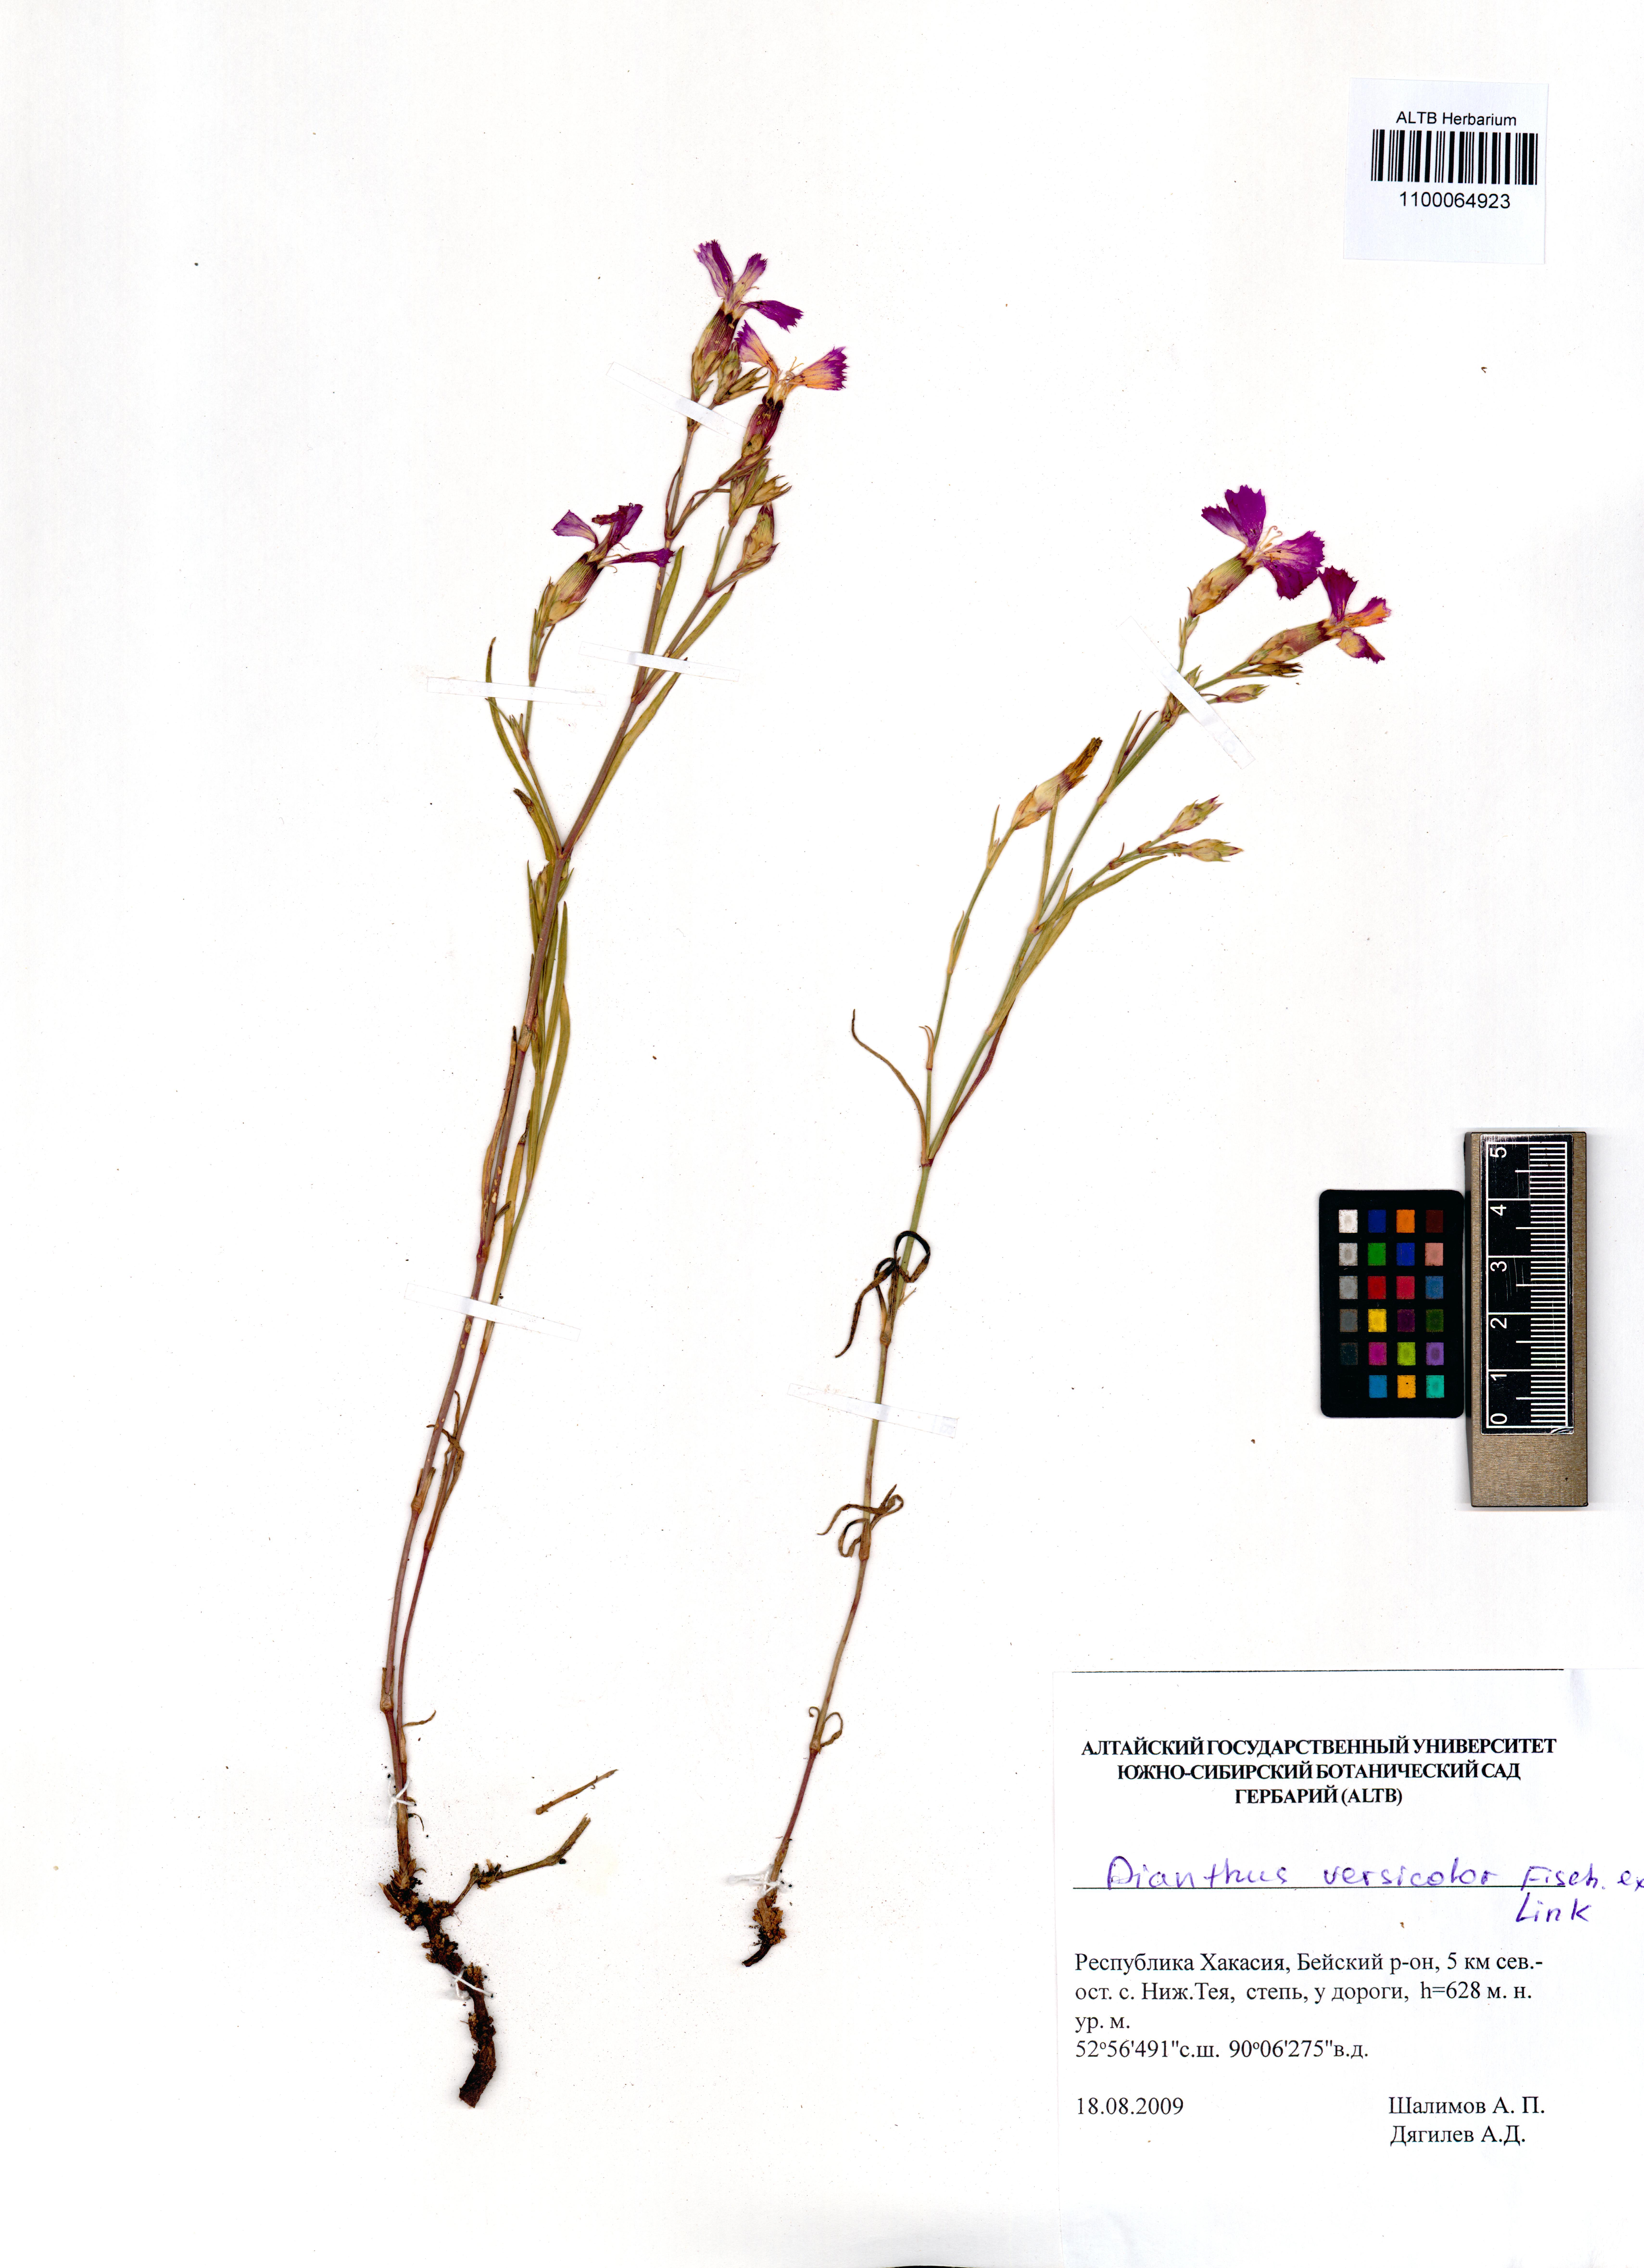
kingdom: Plantae
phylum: Tracheophyta
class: Magnoliopsida
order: Caryophyllales
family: Caryophyllaceae
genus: Dianthus
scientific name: Dianthus chinensis
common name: Rainbow pink
